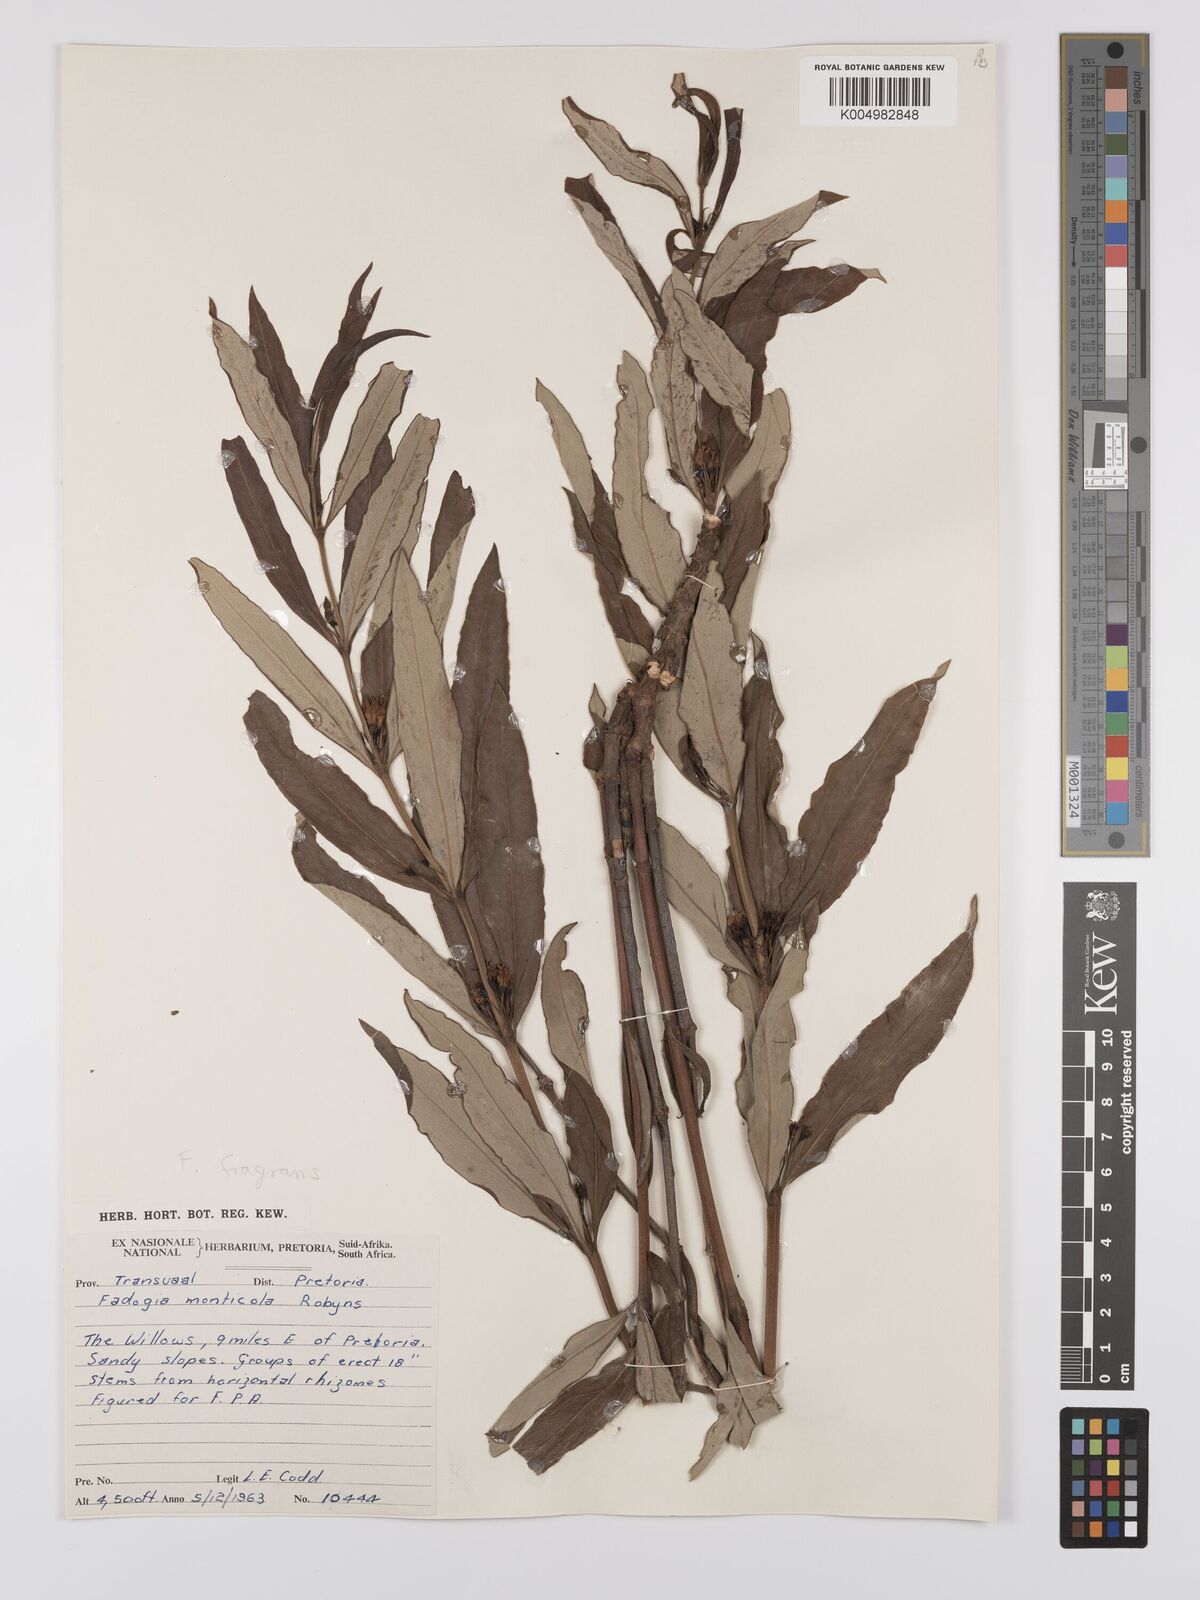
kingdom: Plantae
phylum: Tracheophyta
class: Magnoliopsida
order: Gentianales
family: Rubiaceae
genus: Fadogia
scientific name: Fadogia fragrans
